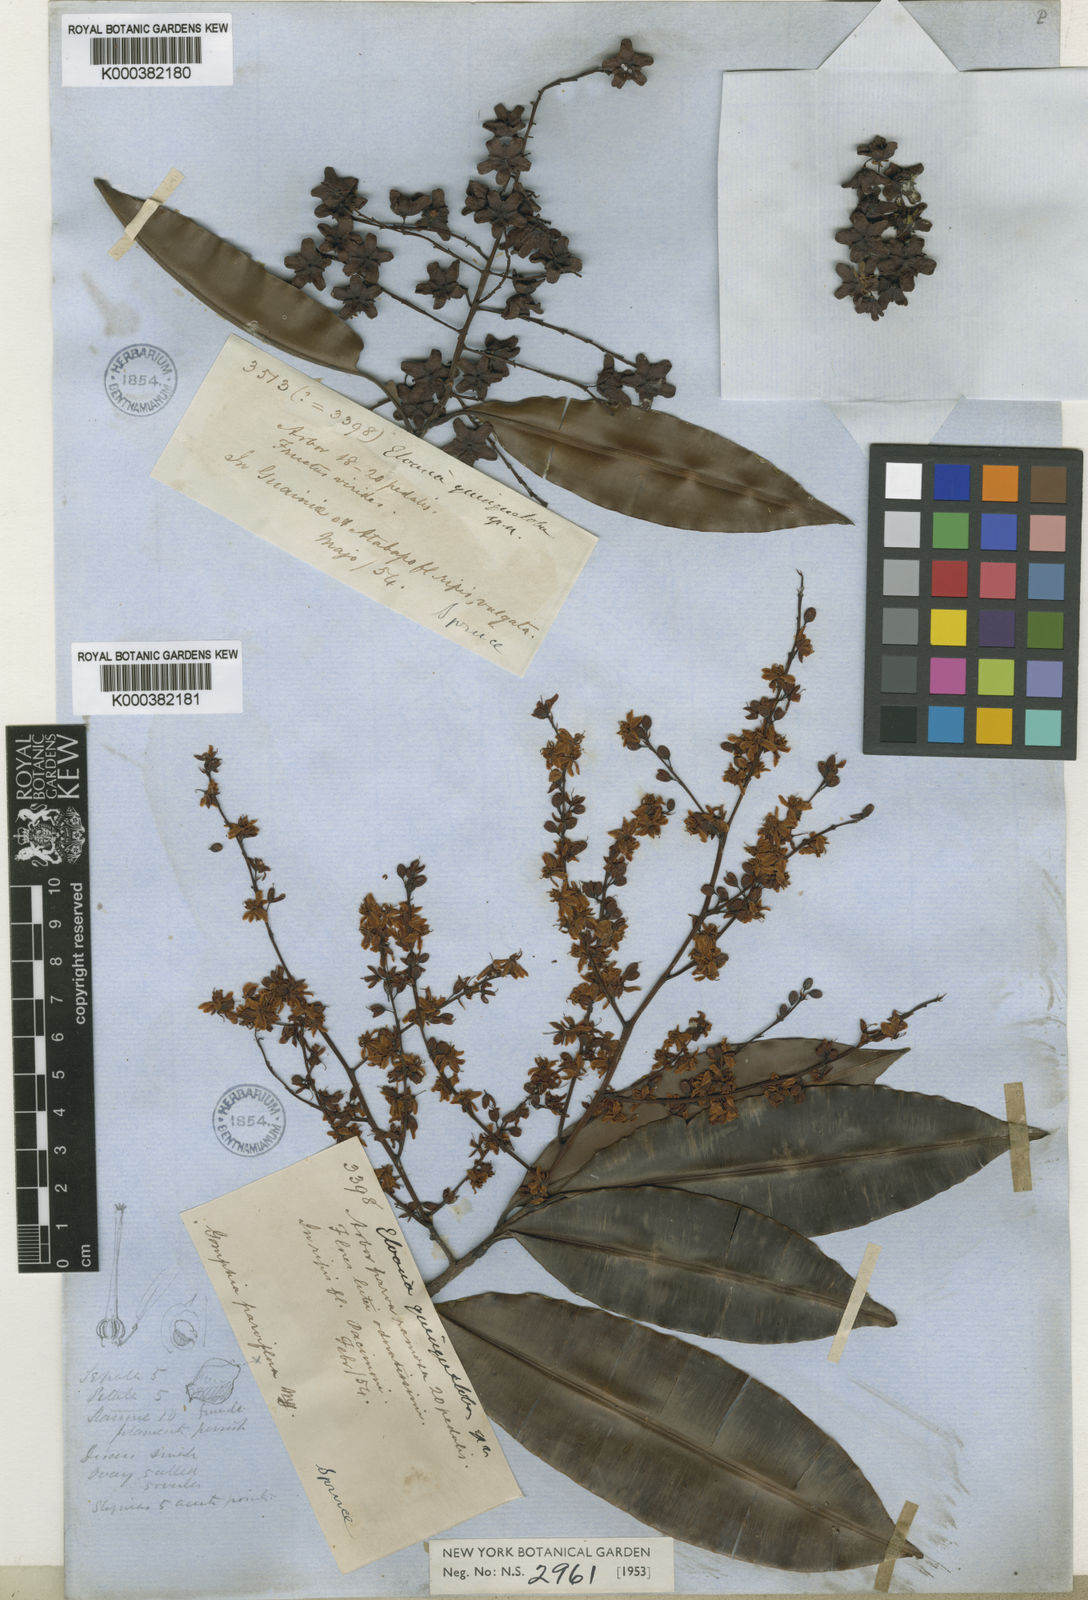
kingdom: Plantae
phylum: Tracheophyta
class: Magnoliopsida
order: Malpighiales
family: Ochnaceae
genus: Elvasia
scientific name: Elvasia quinqueloba
